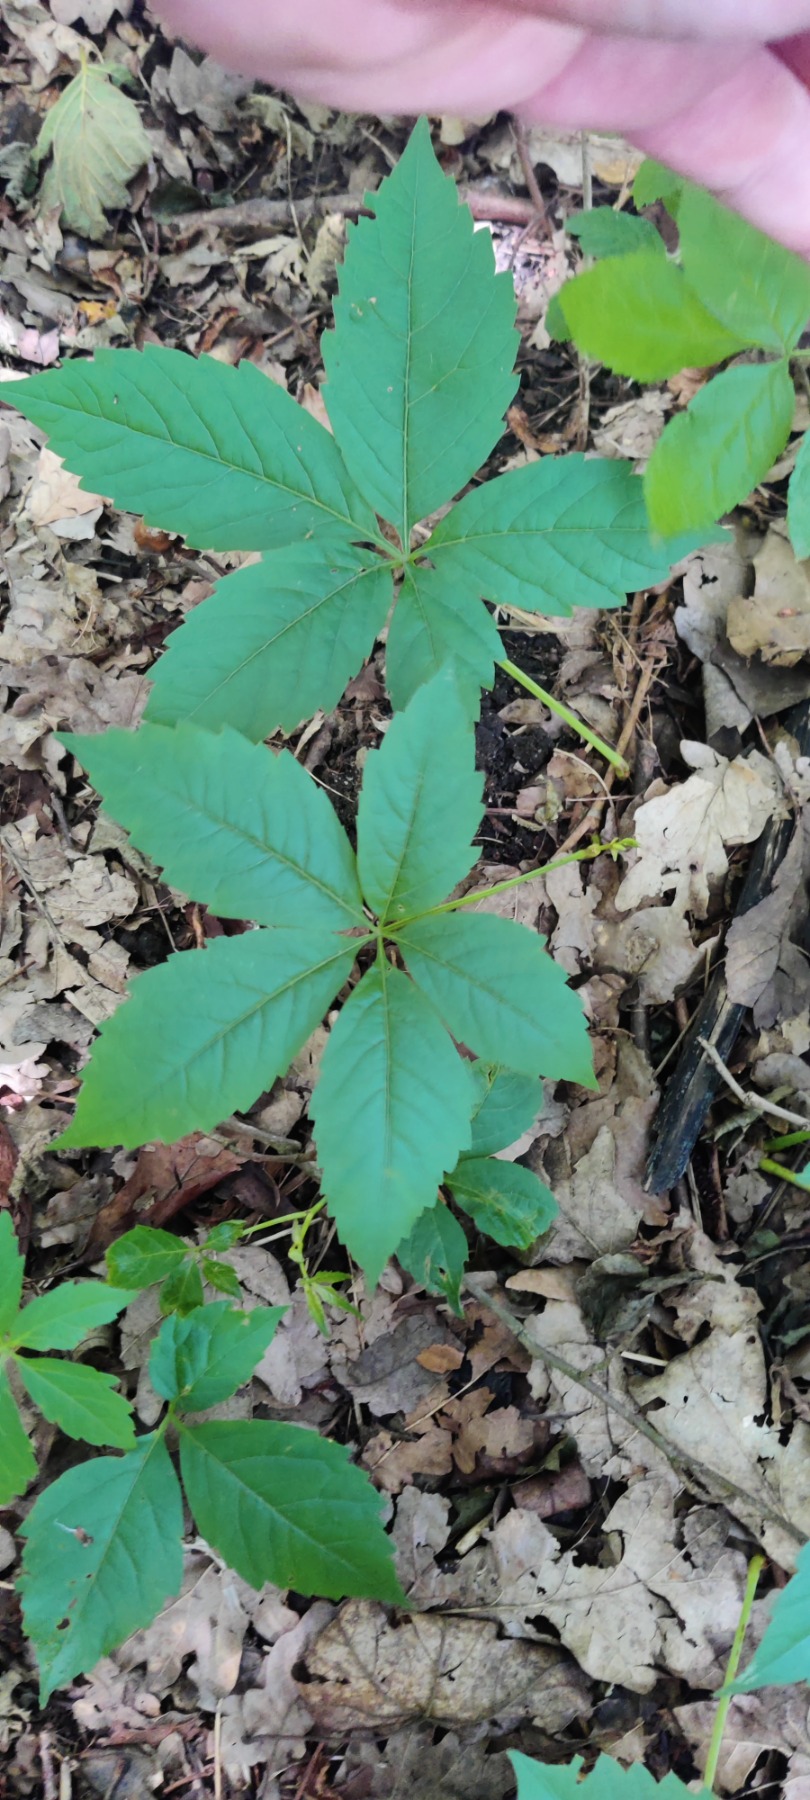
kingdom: Plantae
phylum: Tracheophyta
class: Magnoliopsida
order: Vitales
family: Vitaceae
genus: Parthenocissus
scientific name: Parthenocissus inserta
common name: Vildvin
